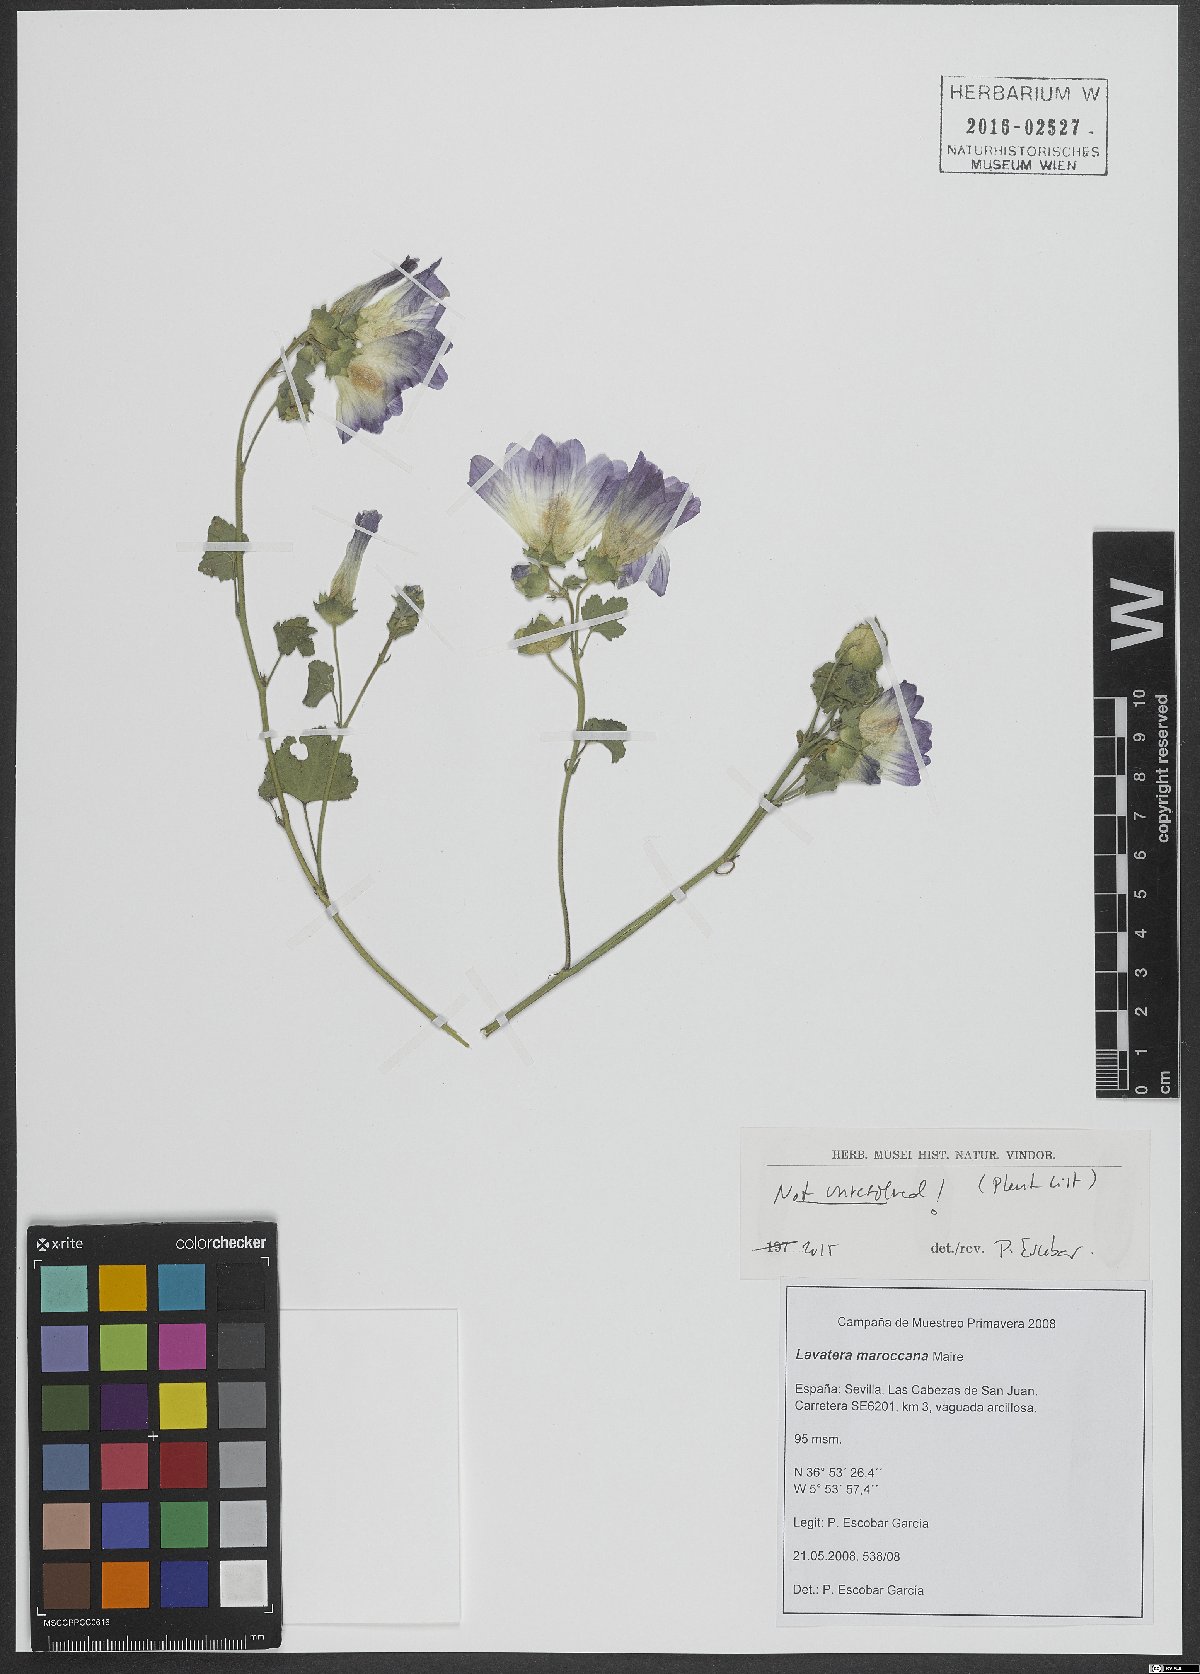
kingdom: Plantae
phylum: Tracheophyta
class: Magnoliopsida
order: Malvales
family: Malvaceae
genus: Malva
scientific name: Malva maroccana
